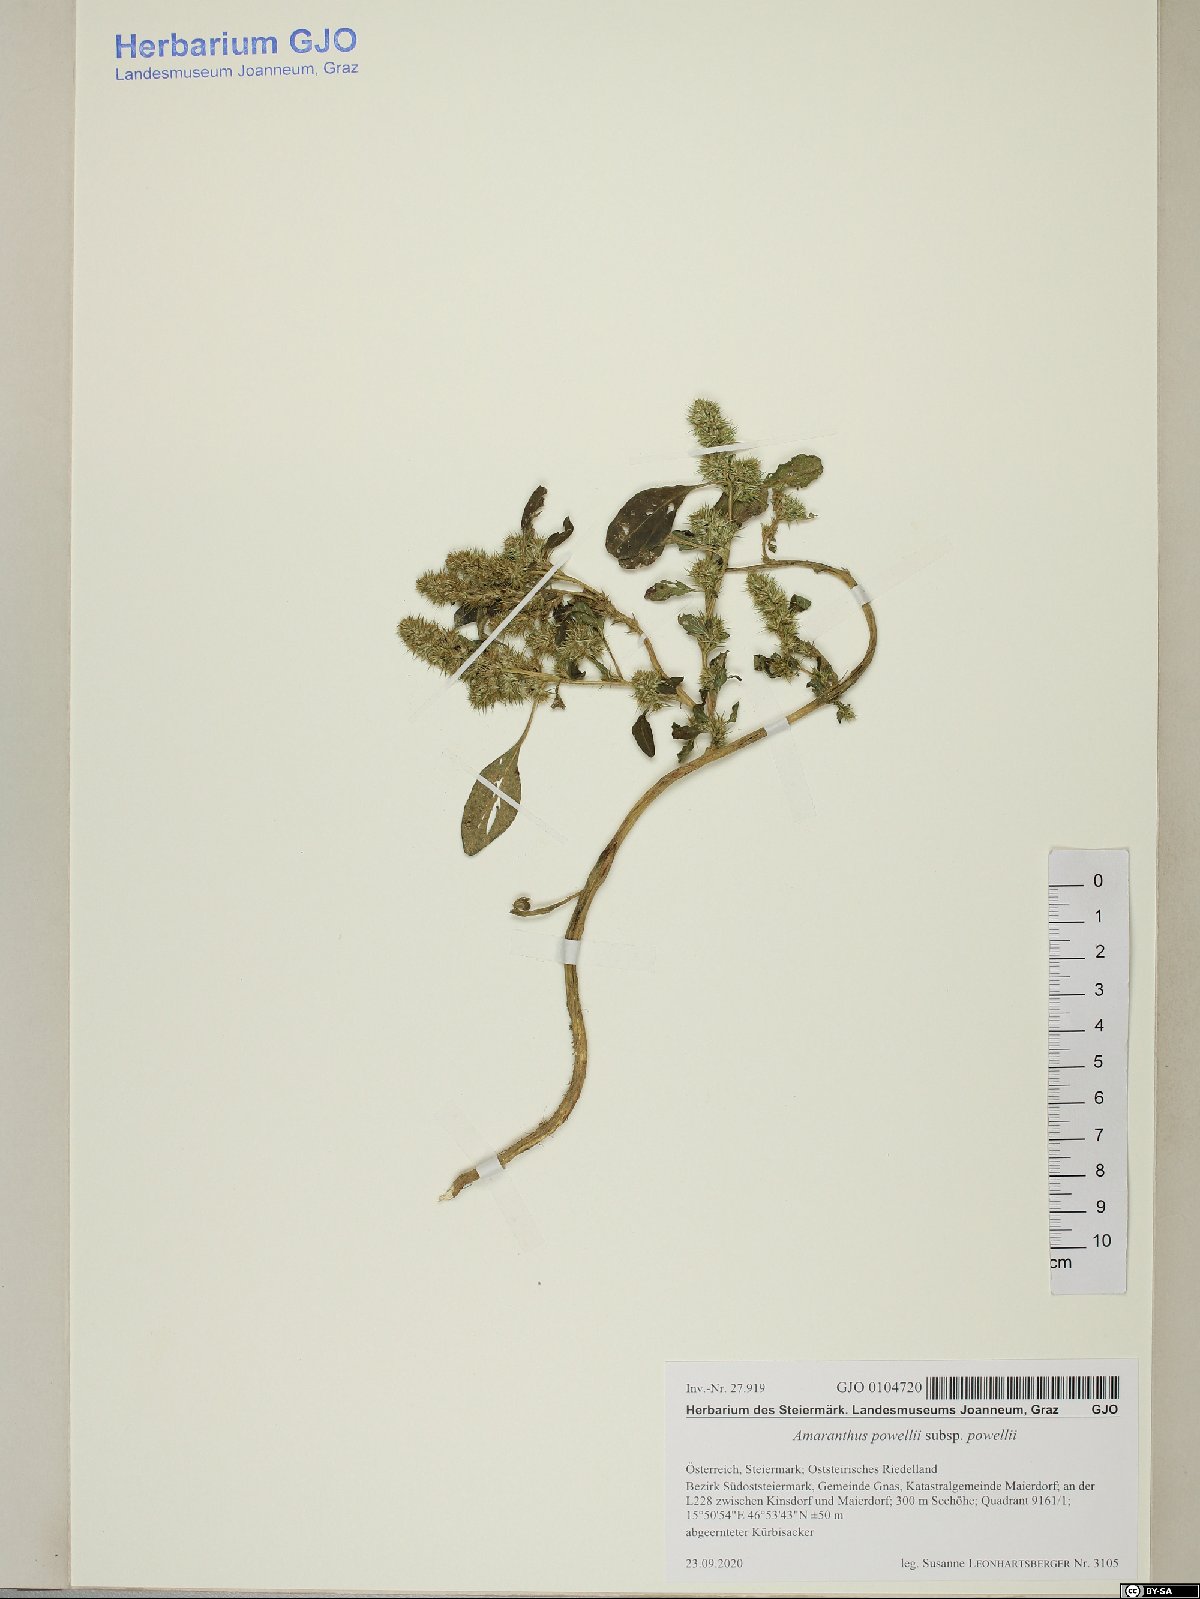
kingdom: Plantae
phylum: Tracheophyta
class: Magnoliopsida
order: Caryophyllales
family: Amaranthaceae
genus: Amaranthus
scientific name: Amaranthus powellii
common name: Powell's amaranth
